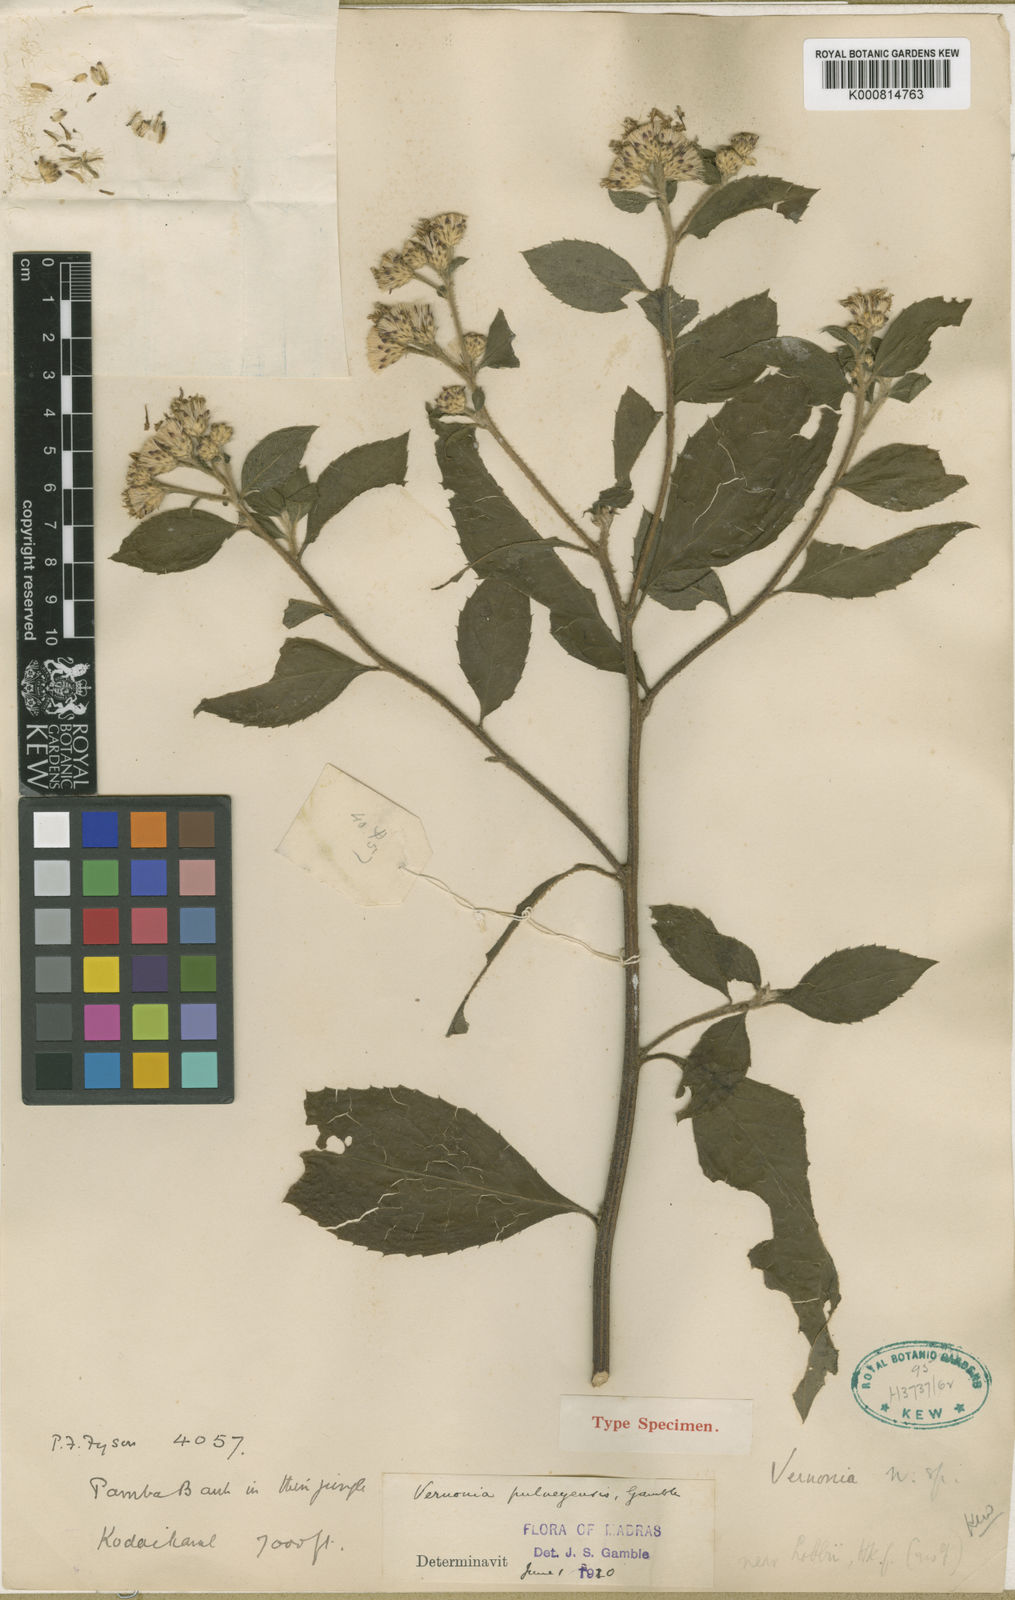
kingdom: Plantae
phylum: Tracheophyta
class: Magnoliopsida
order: Asterales
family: Asteraceae
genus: Vernonia
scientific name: Vernonia
